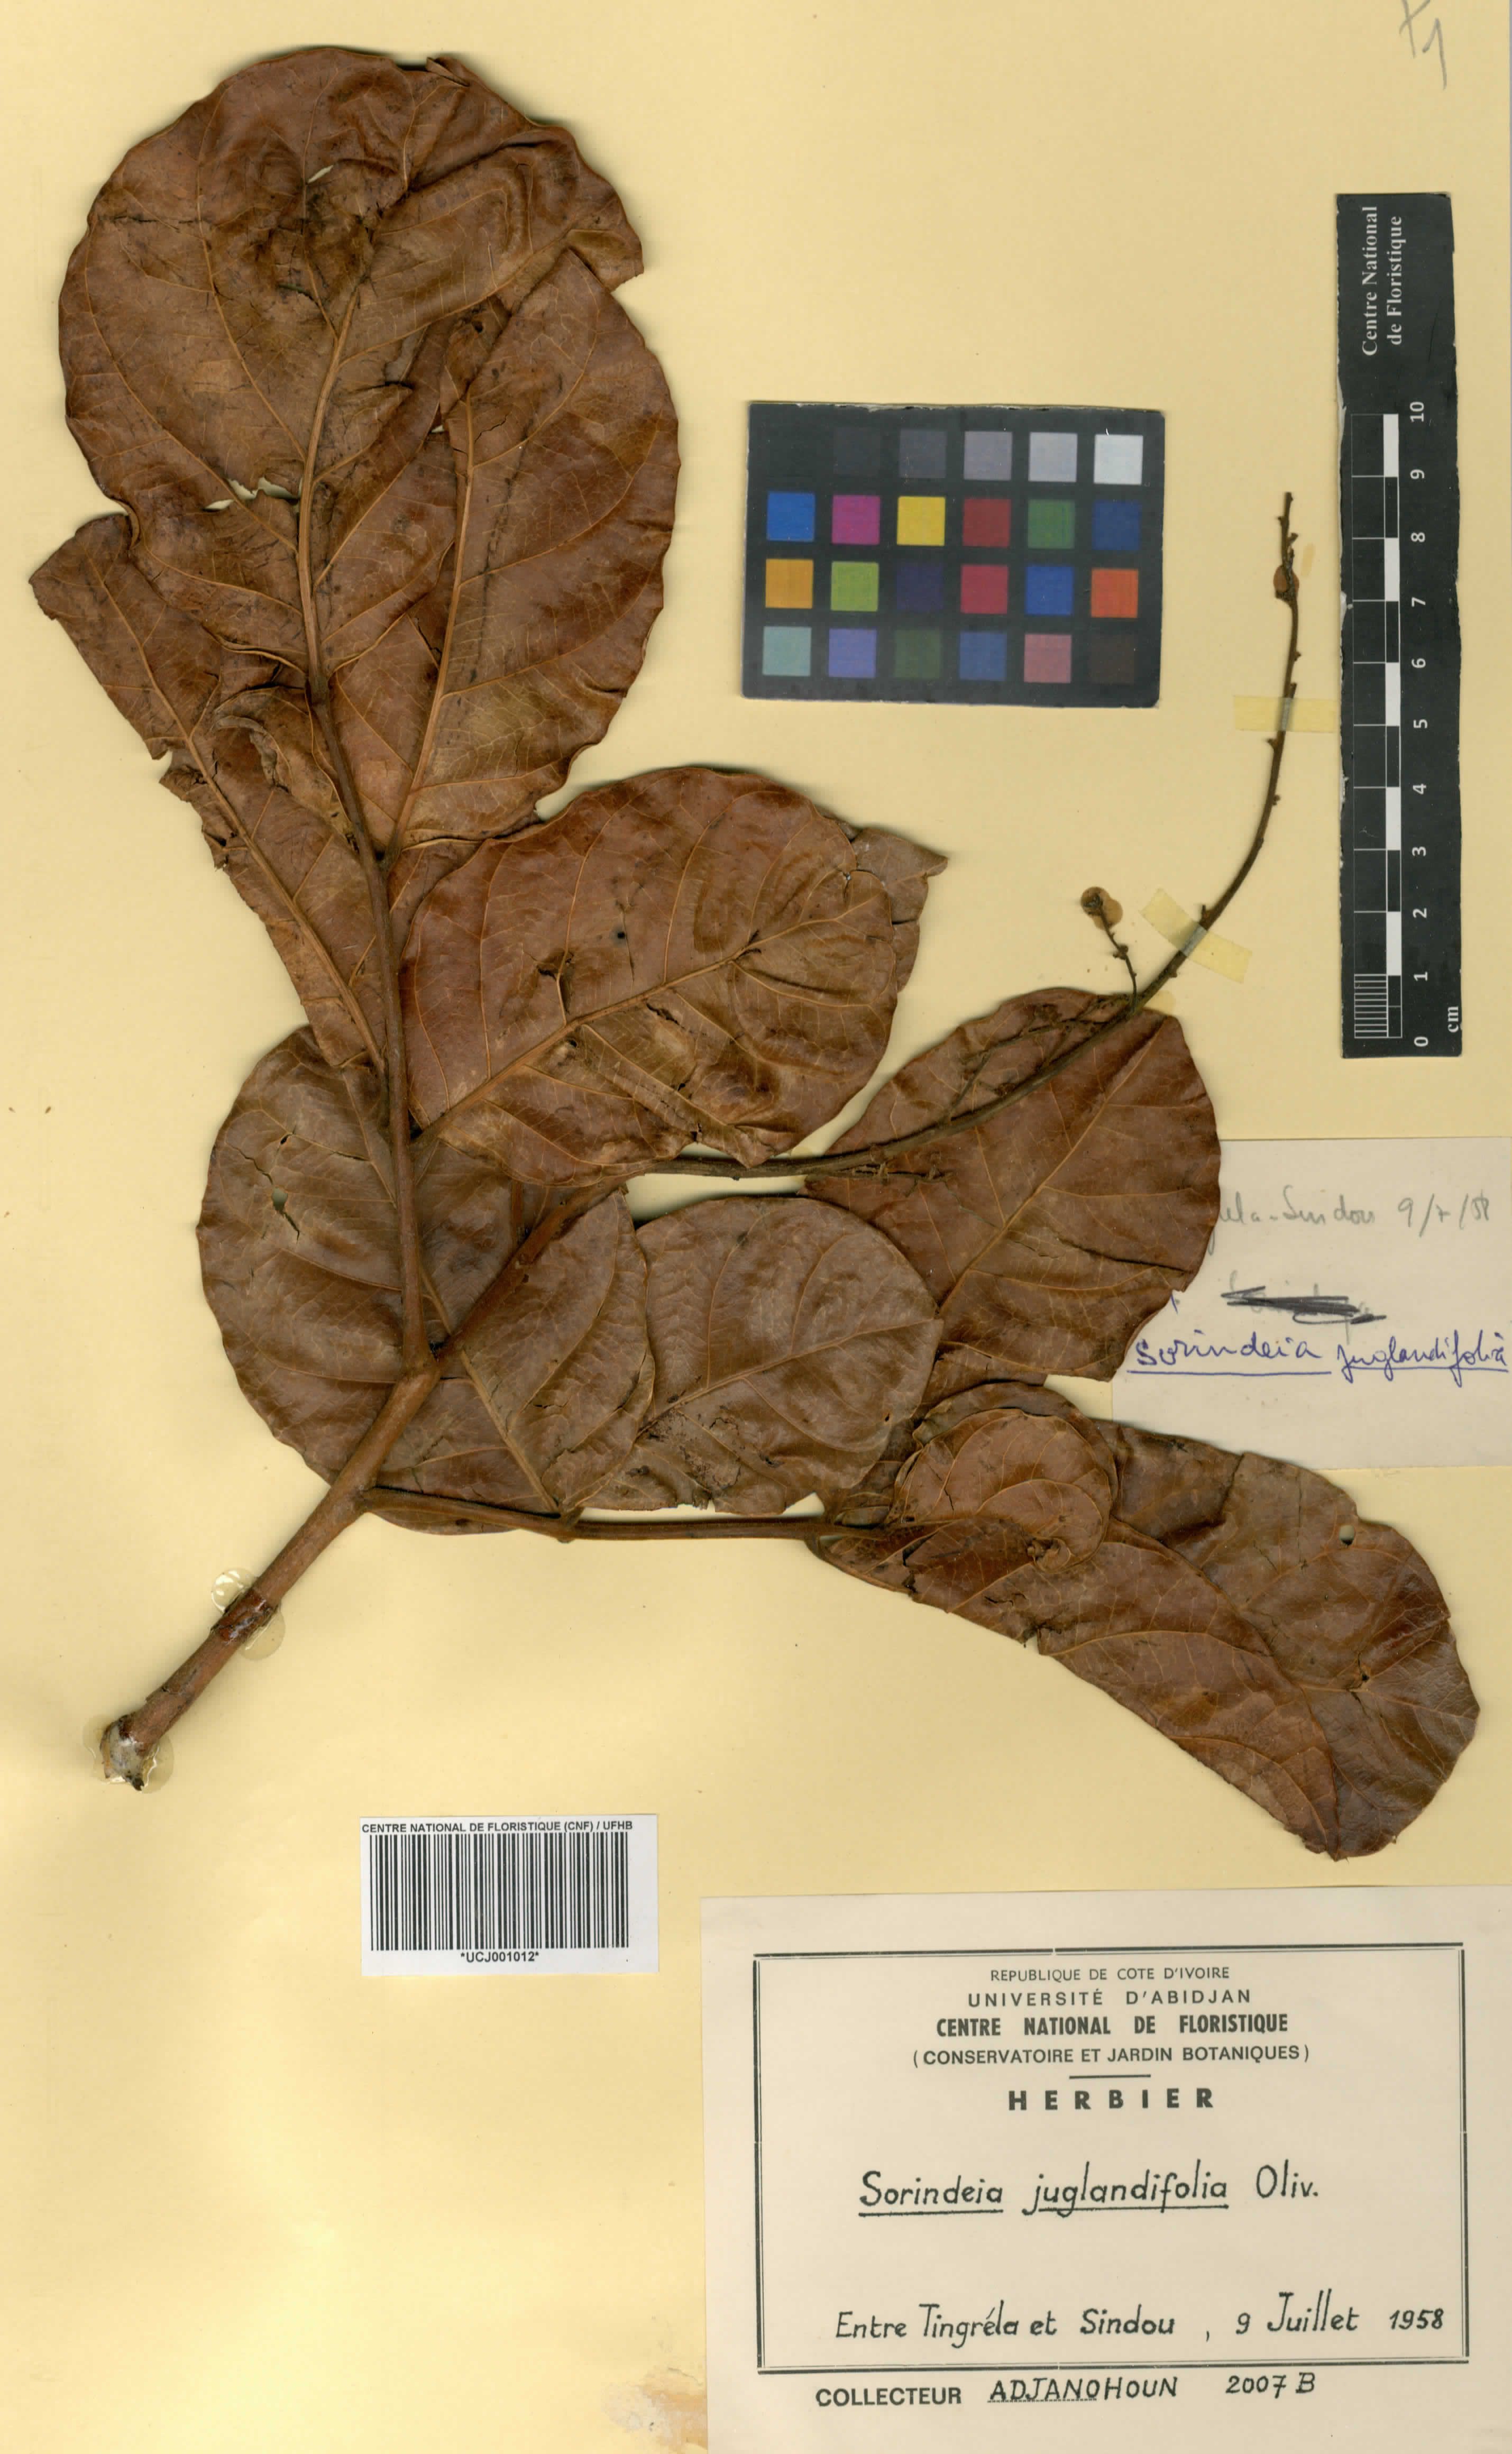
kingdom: Plantae
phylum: Tracheophyta
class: Magnoliopsida
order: Sapindales
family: Anacardiaceae
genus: Sorindeia
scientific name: Sorindeia juglandifolia
